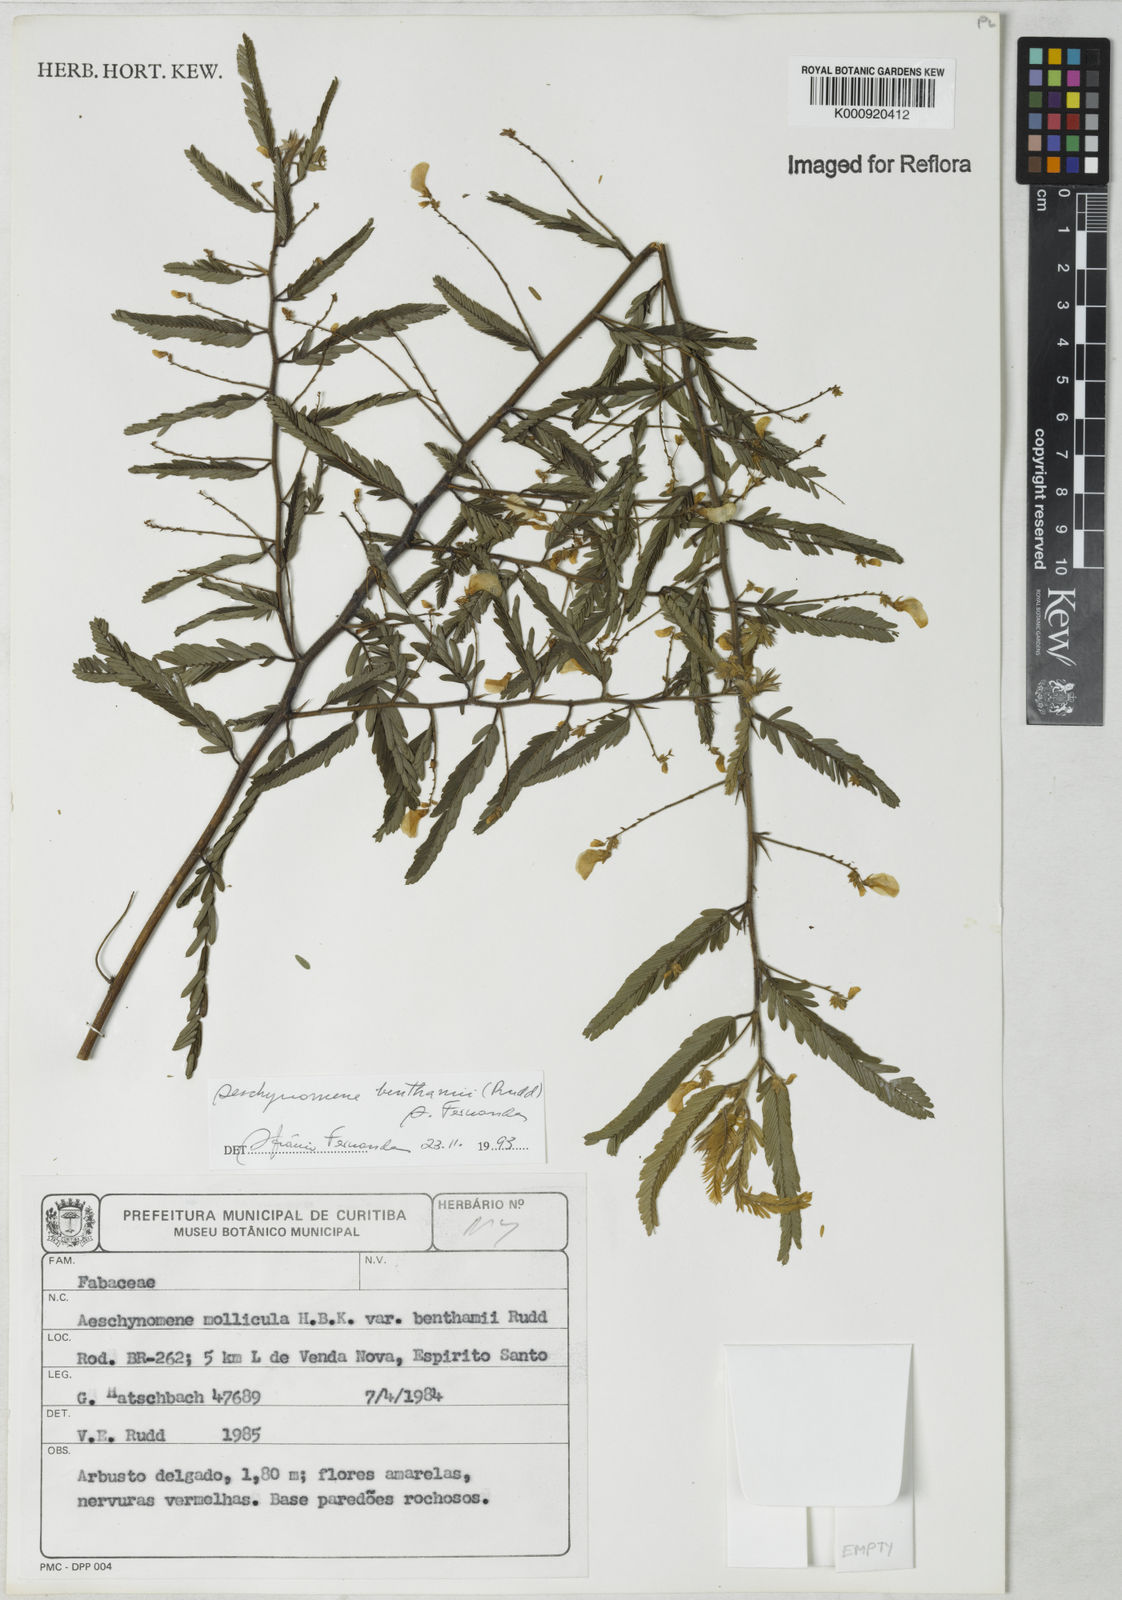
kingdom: Plantae
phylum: Tracheophyta
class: Magnoliopsida
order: Fabales
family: Fabaceae
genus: Ctenodon
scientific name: Ctenodon benthamii
